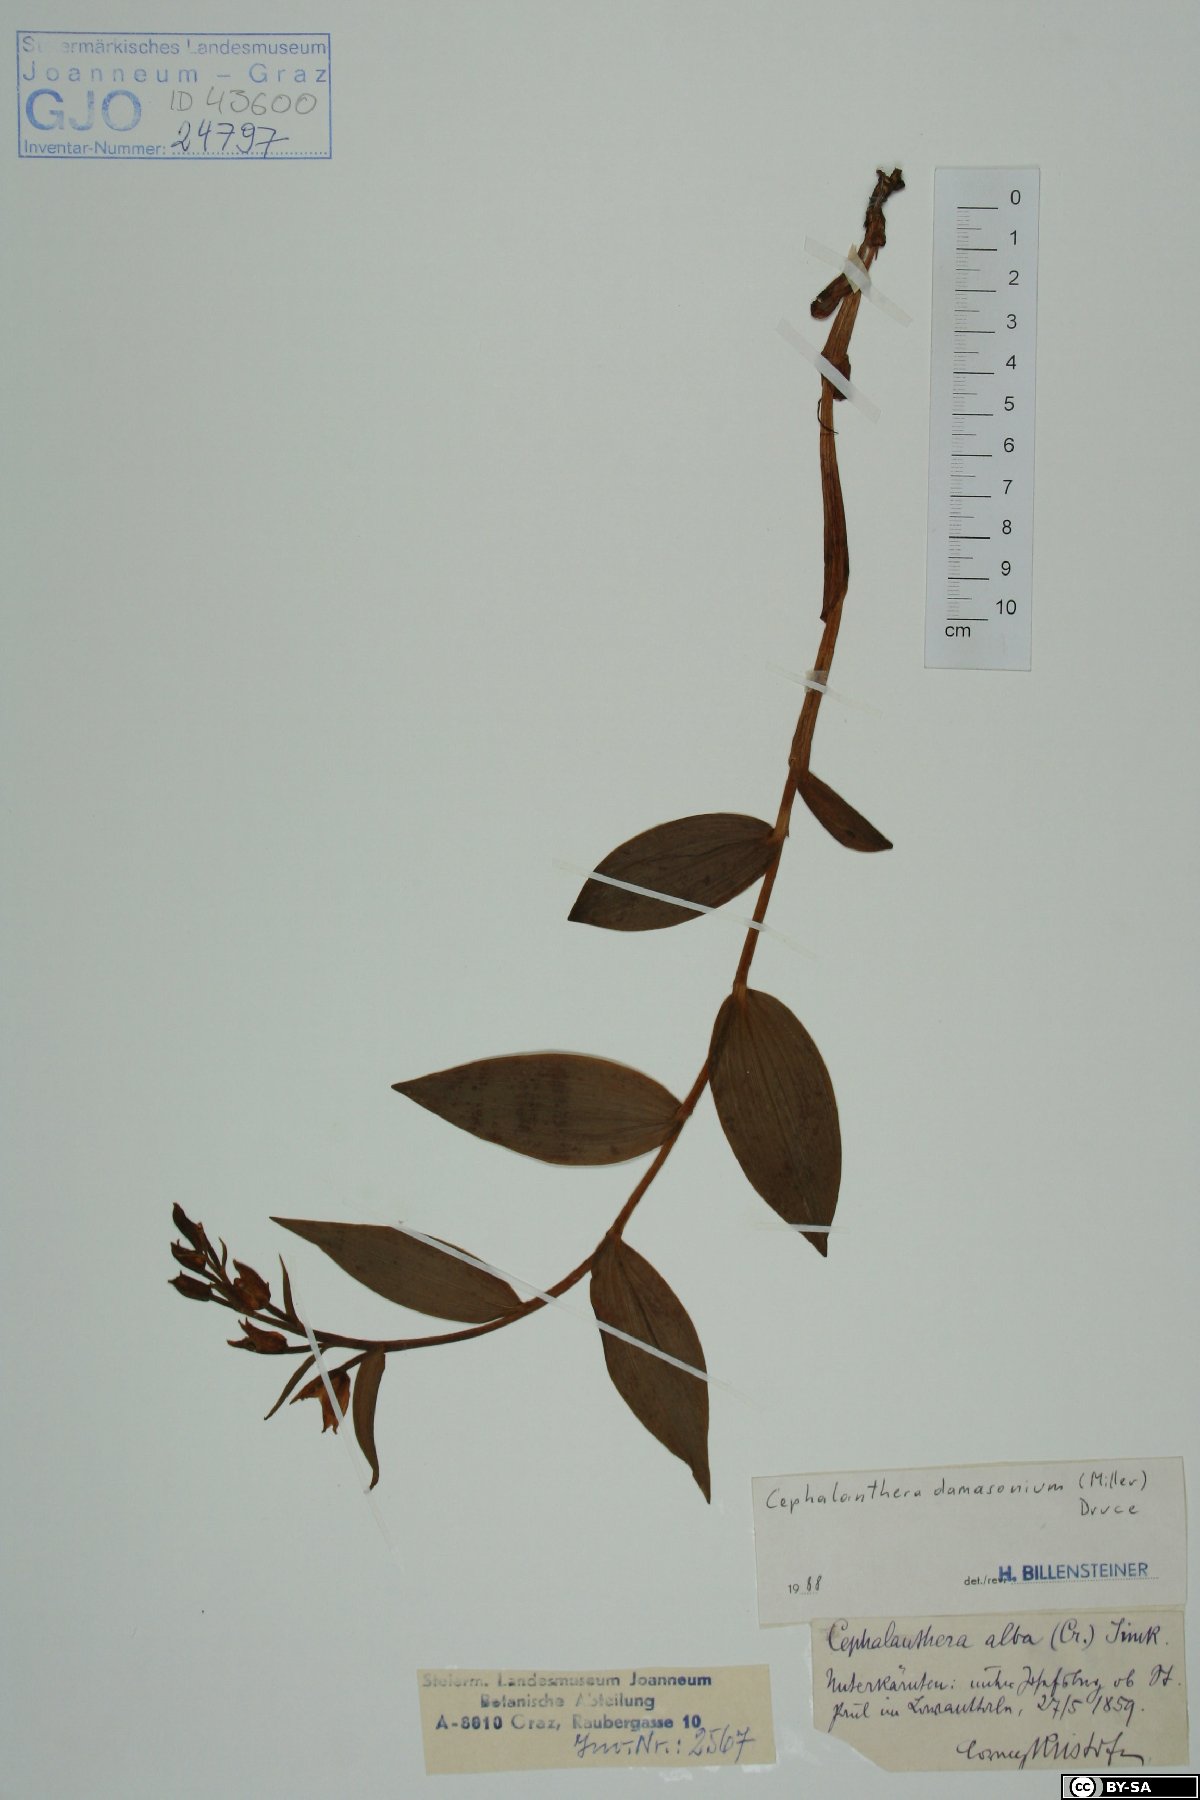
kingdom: Plantae
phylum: Tracheophyta
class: Liliopsida
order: Asparagales
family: Orchidaceae
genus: Cephalanthera
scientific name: Cephalanthera damasonium
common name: White helleborine
